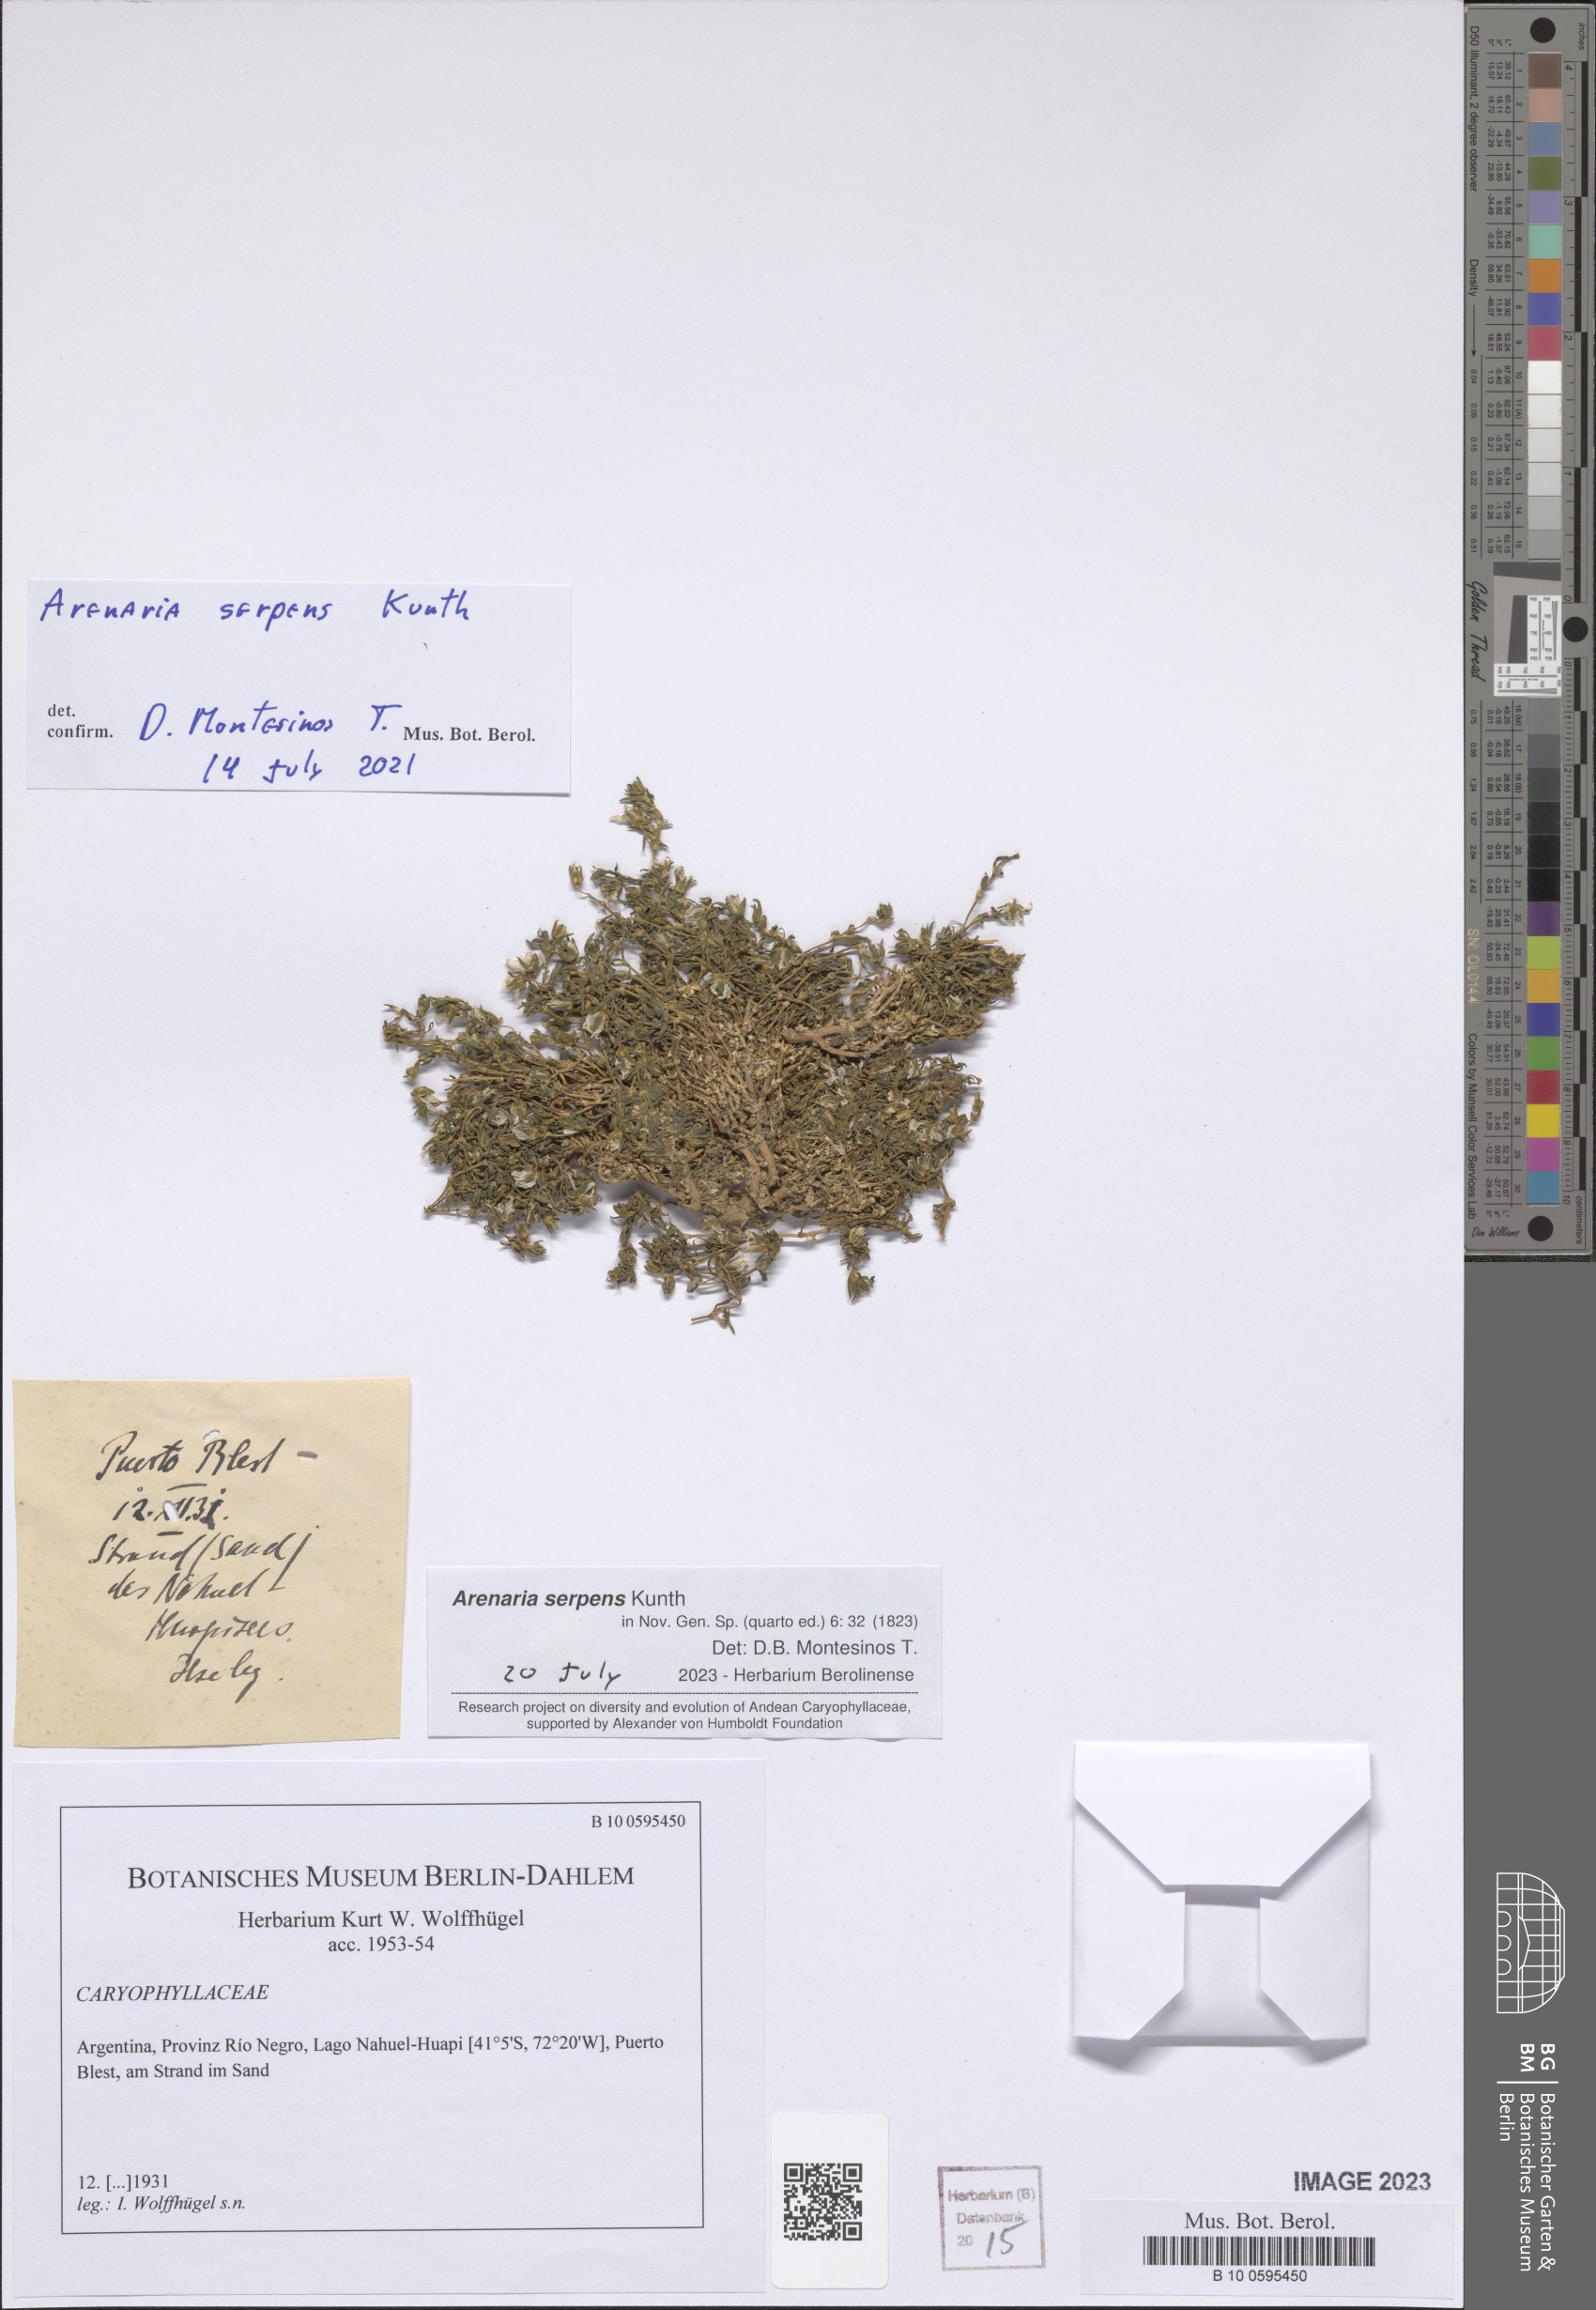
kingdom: Plantae
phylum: Tracheophyta
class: Magnoliopsida
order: Caryophyllales
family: Caryophyllaceae
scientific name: Caryophyllaceae
